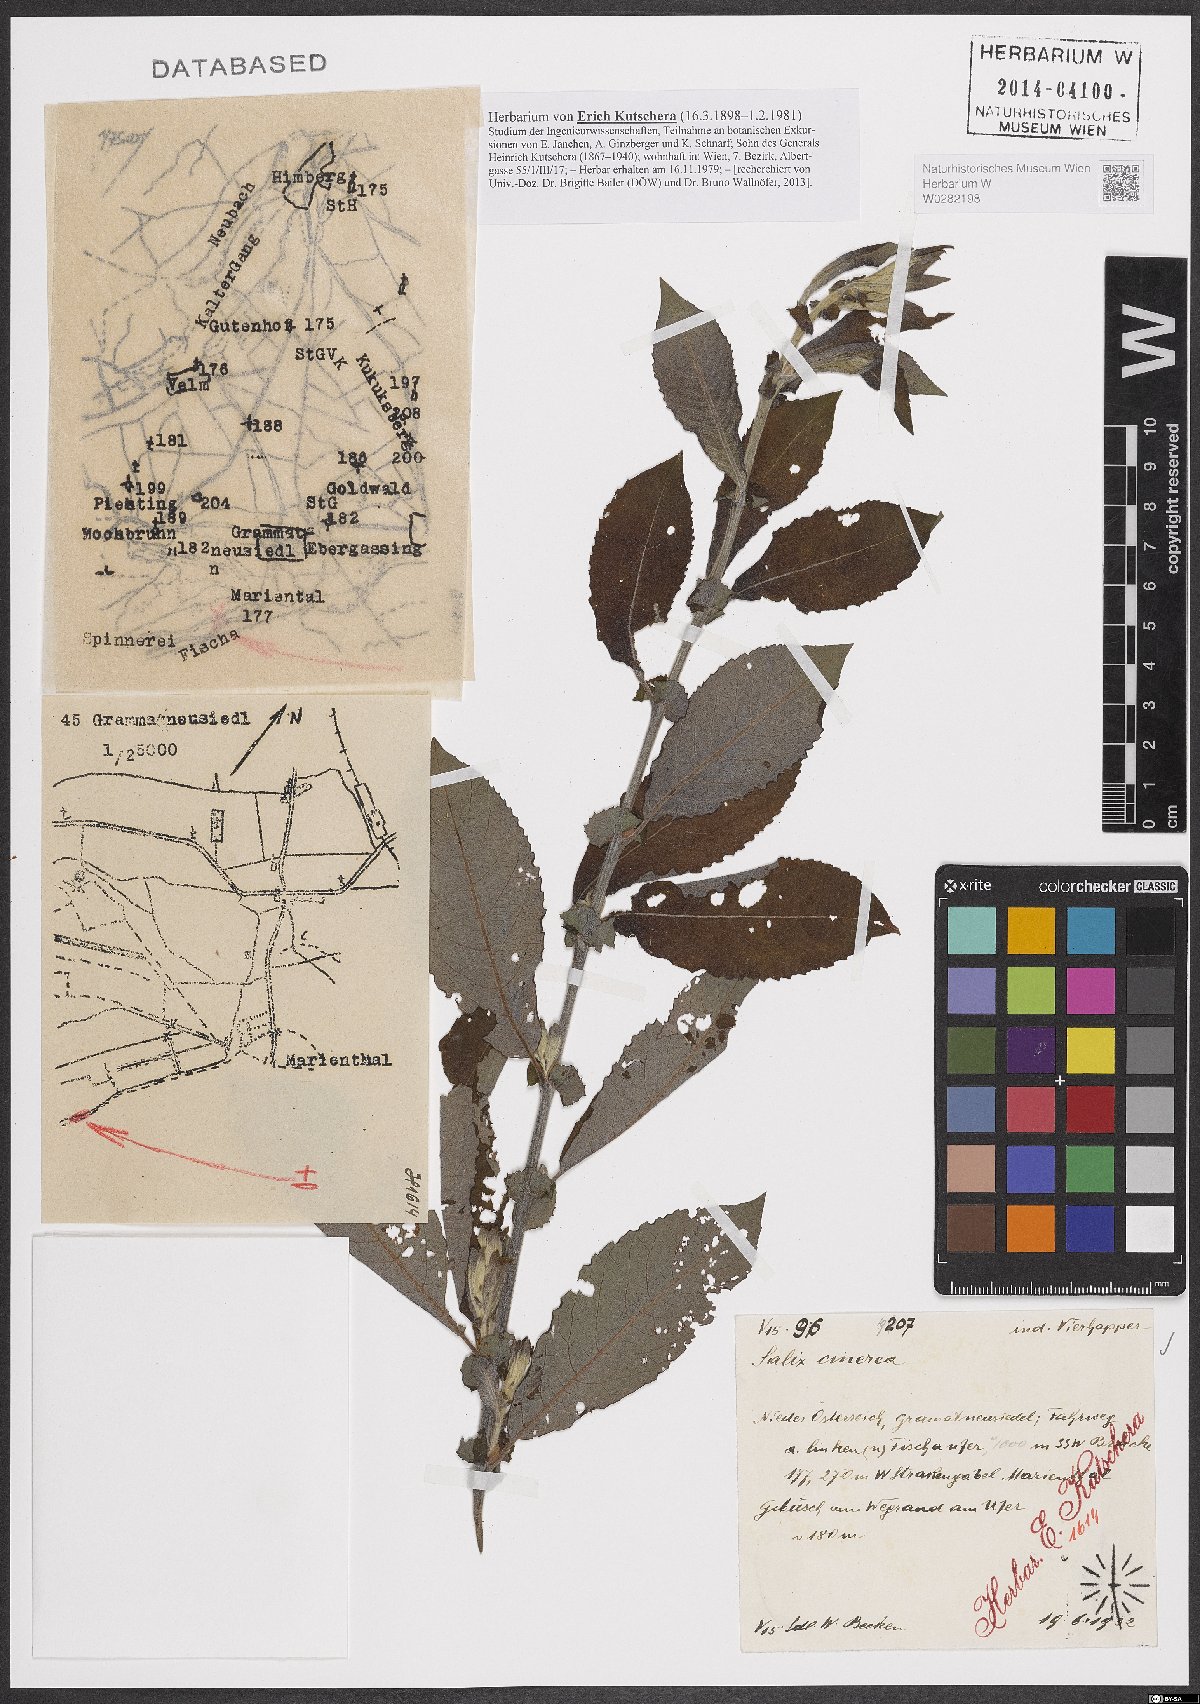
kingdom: Plantae
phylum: Tracheophyta
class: Magnoliopsida
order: Malpighiales
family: Salicaceae
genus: Salix
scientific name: Salix cinerea
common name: Common sallow
